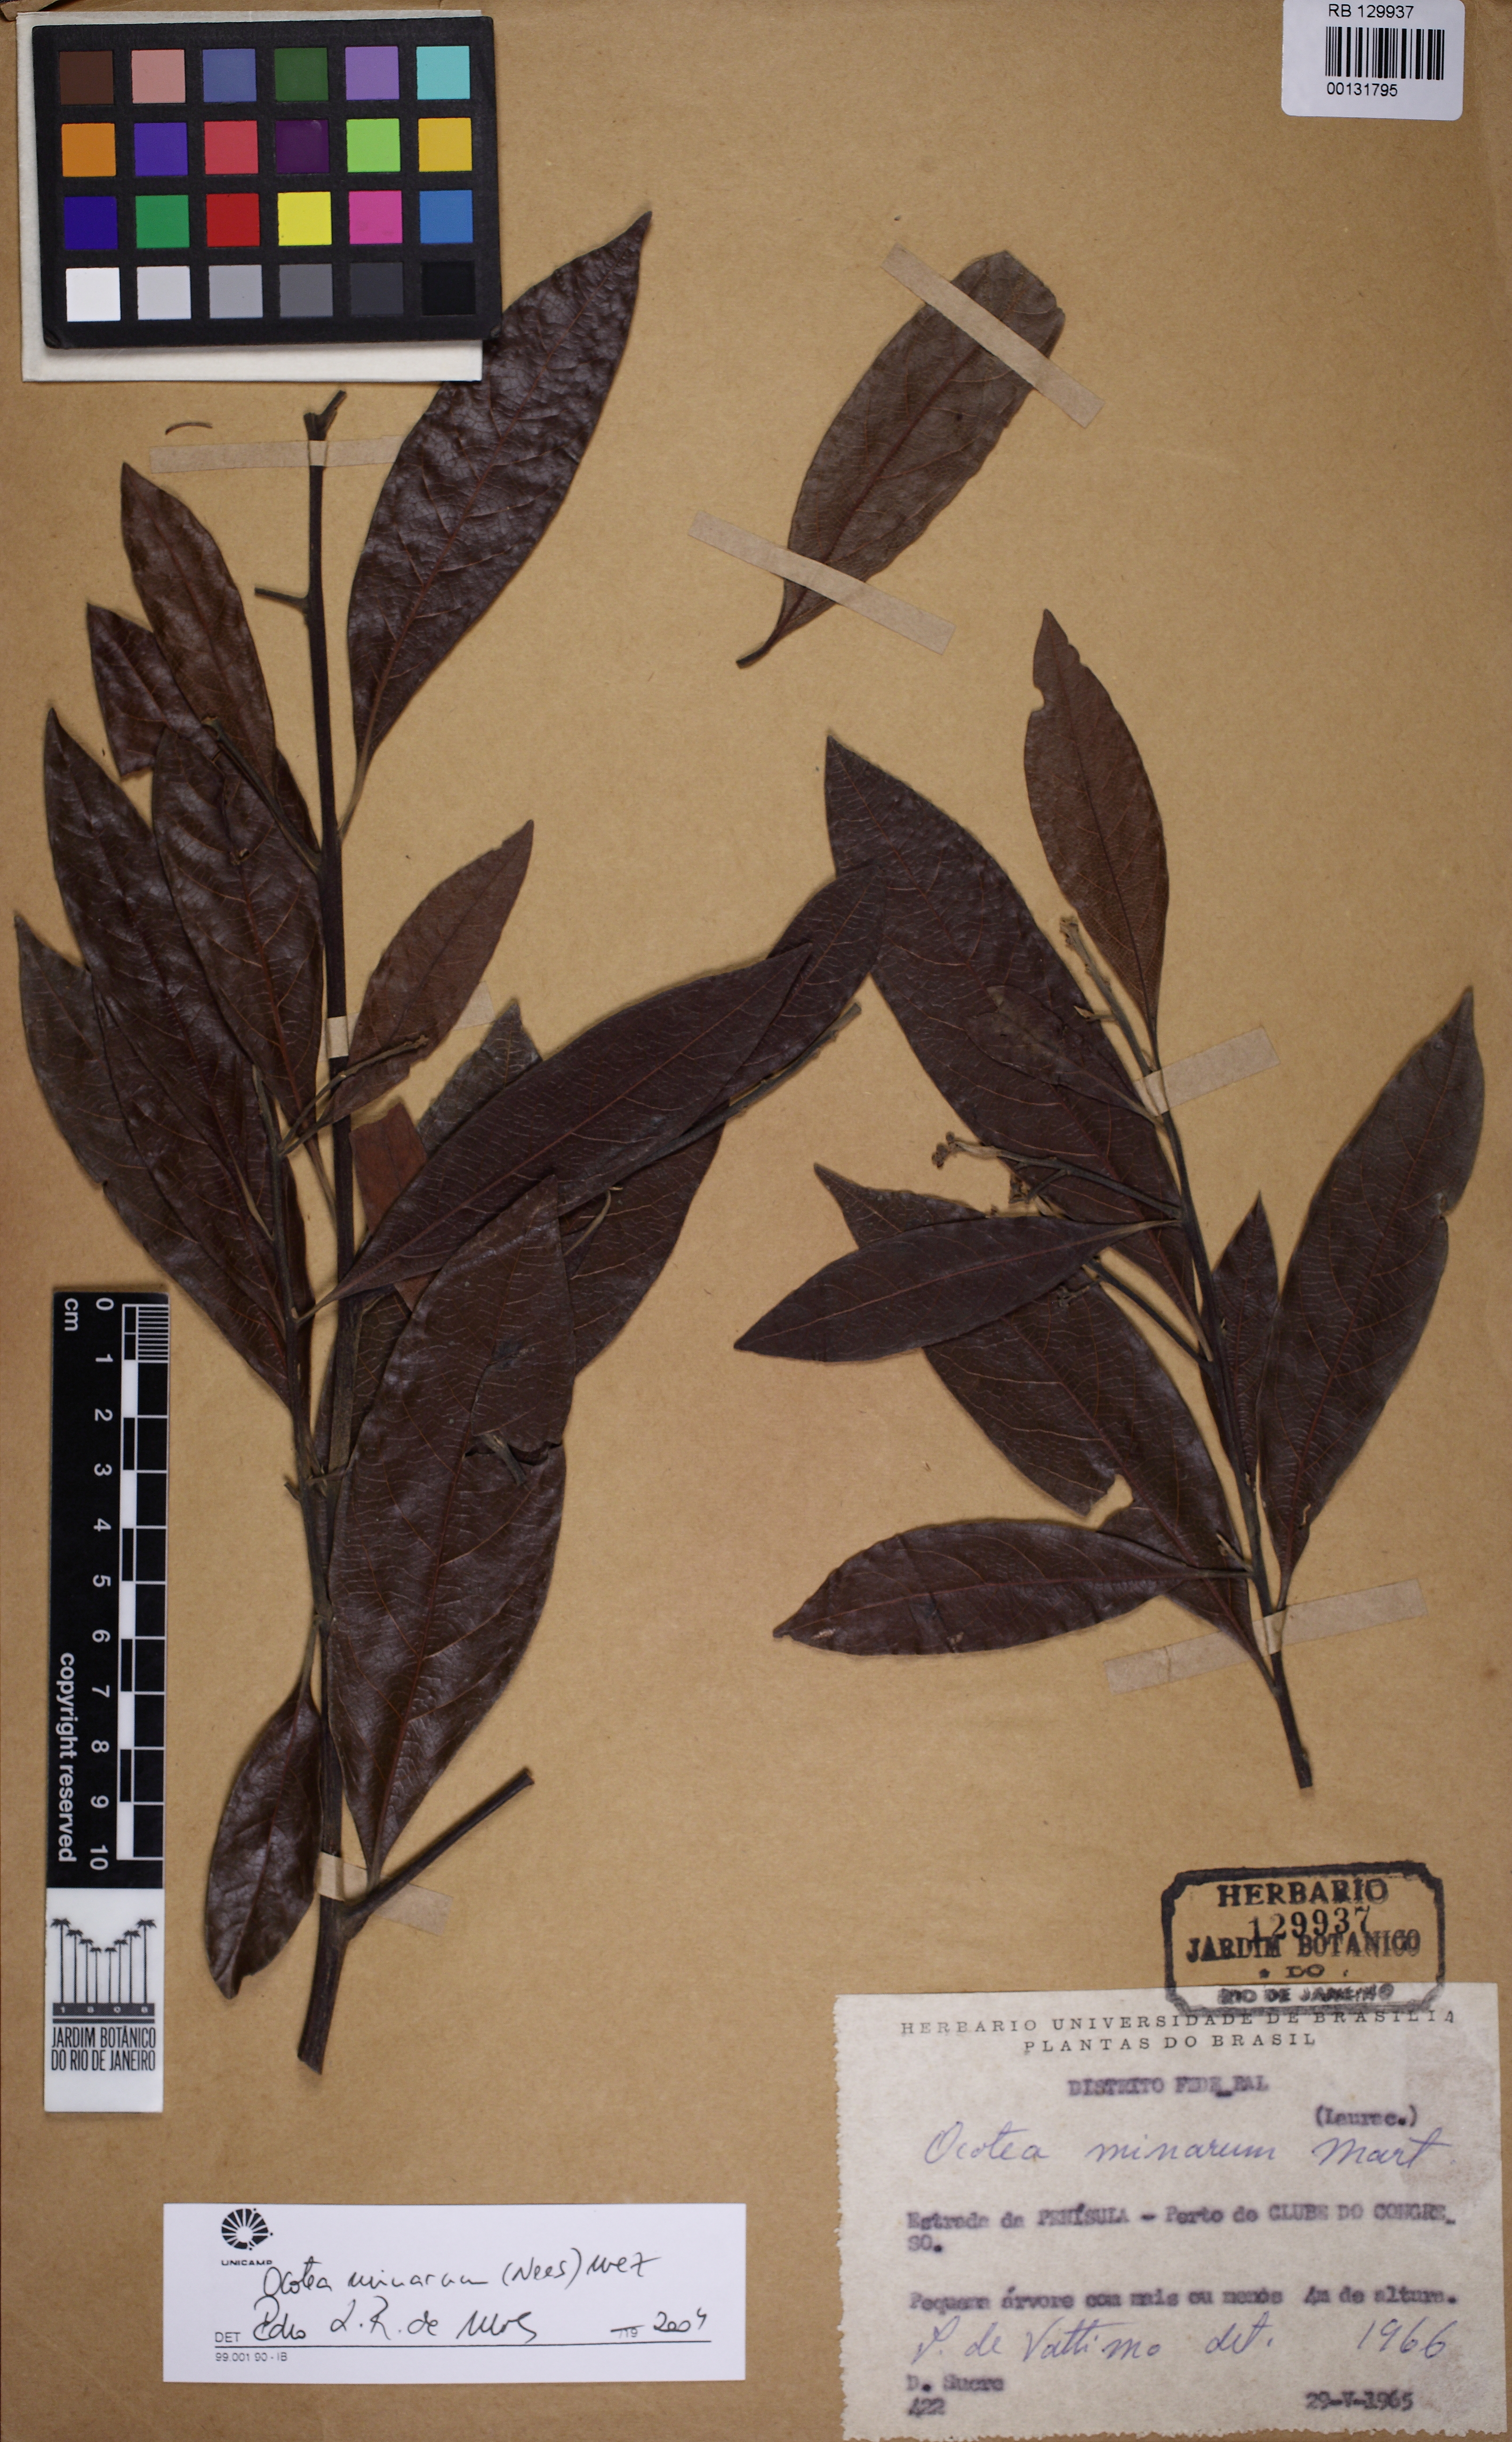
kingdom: Plantae
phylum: Tracheophyta
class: Magnoliopsida
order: Laurales
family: Lauraceae
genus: Ocotea
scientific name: Ocotea minarum
